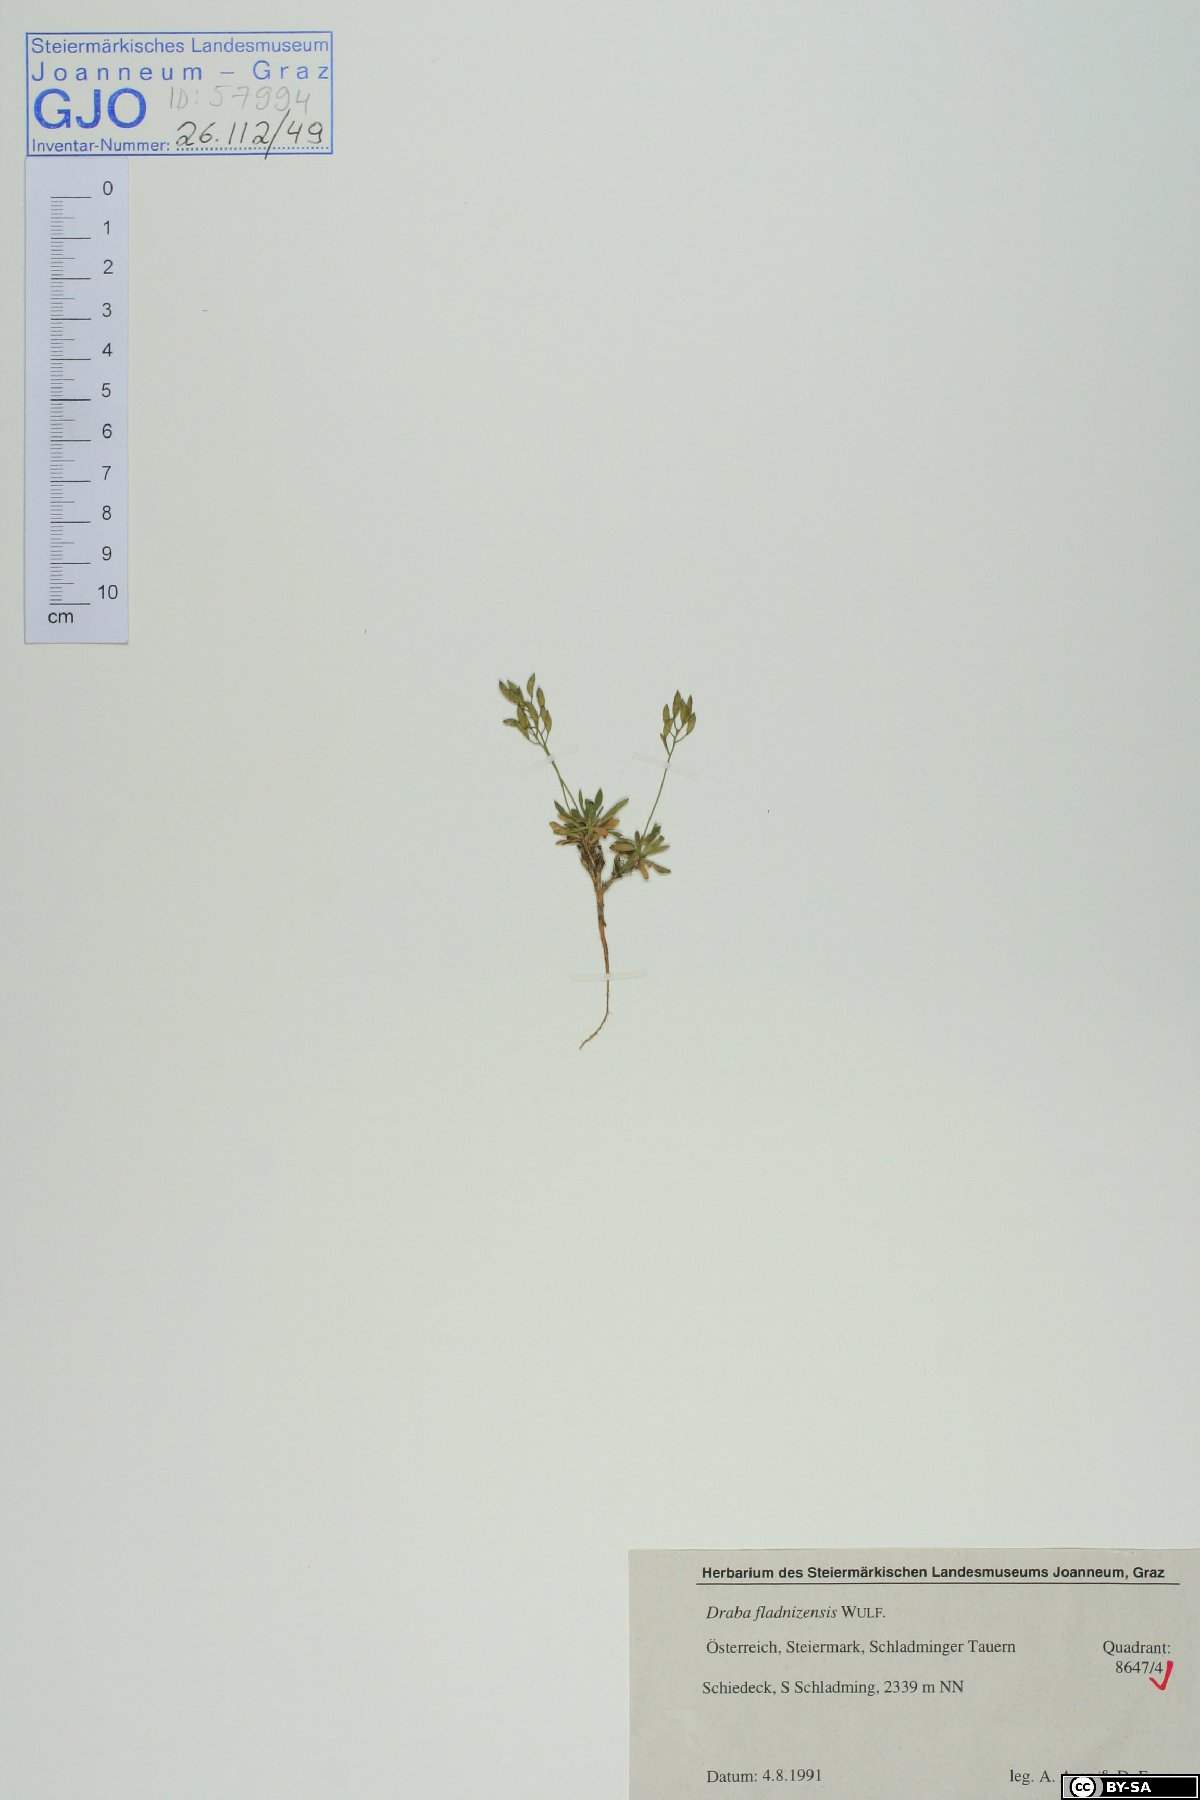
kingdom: Plantae
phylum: Tracheophyta
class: Magnoliopsida
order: Brassicales
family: Brassicaceae
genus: Draba
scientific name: Draba fladnizensis
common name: Austrian draba
